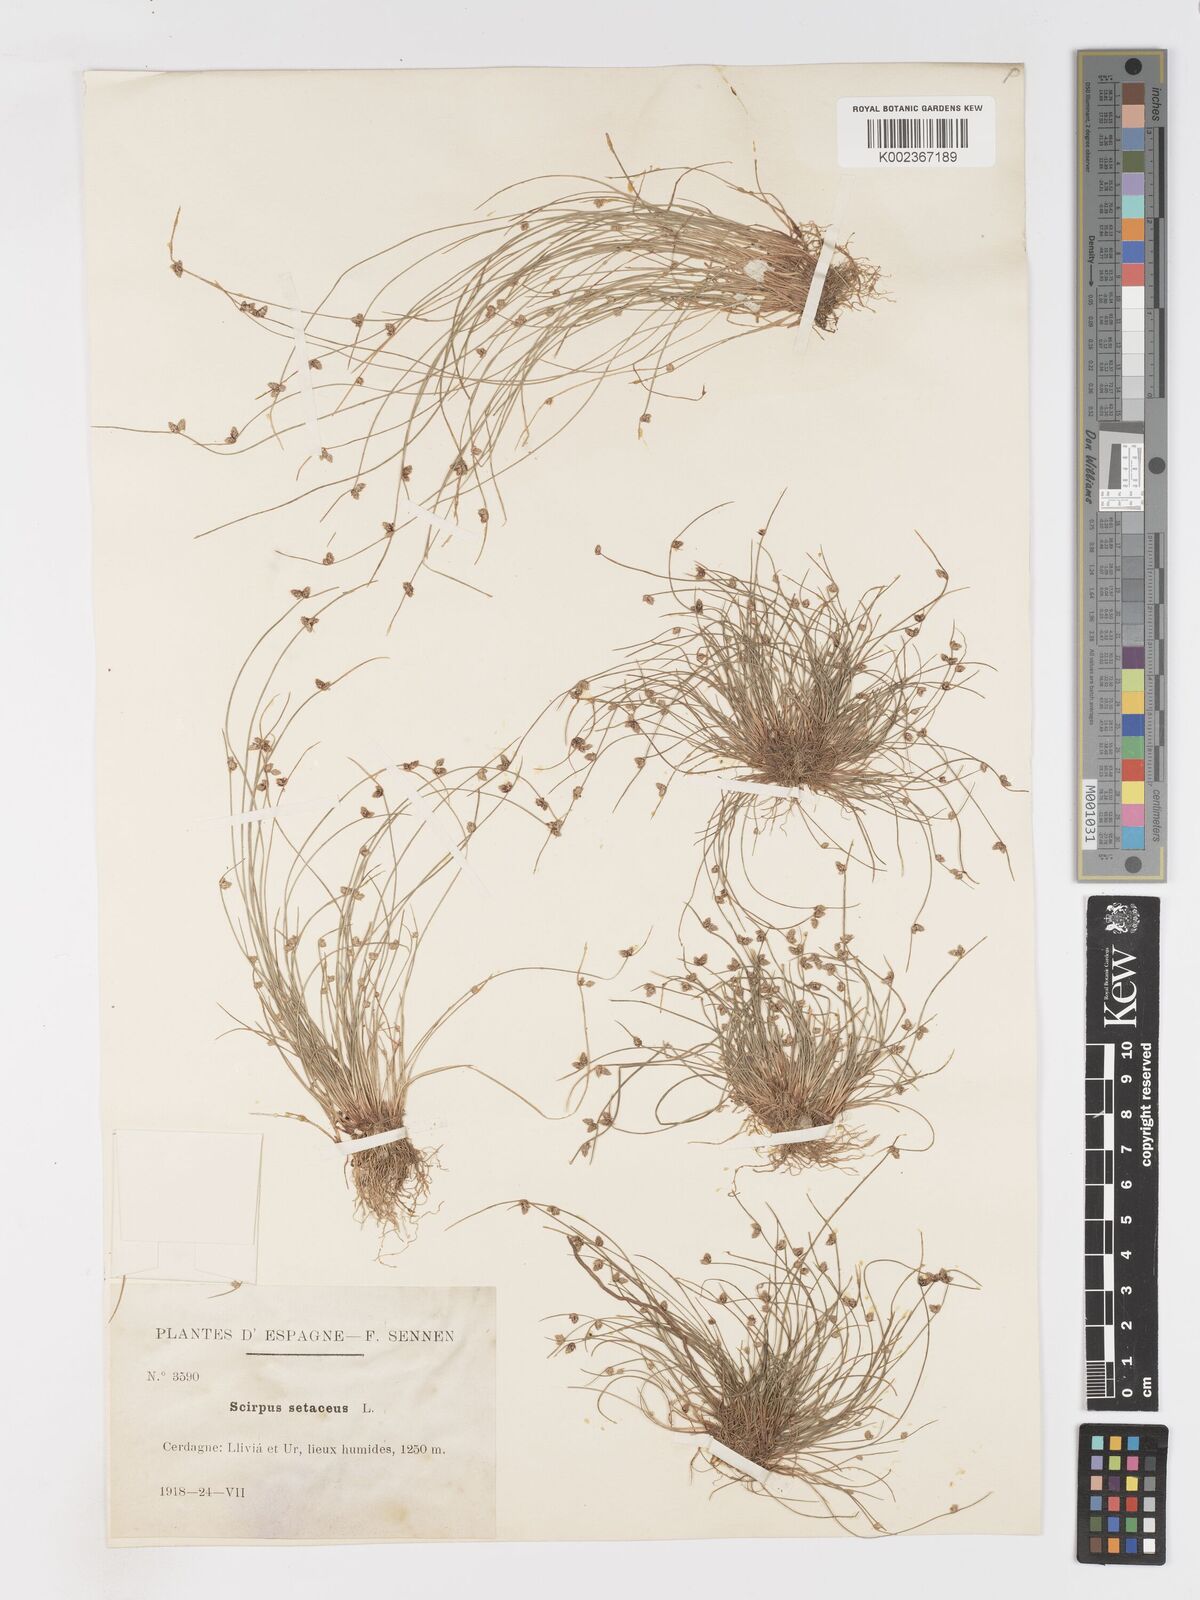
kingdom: Plantae
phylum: Tracheophyta
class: Liliopsida
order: Poales
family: Cyperaceae
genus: Isolepis
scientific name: Isolepis setacea
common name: Bristle club-rush
